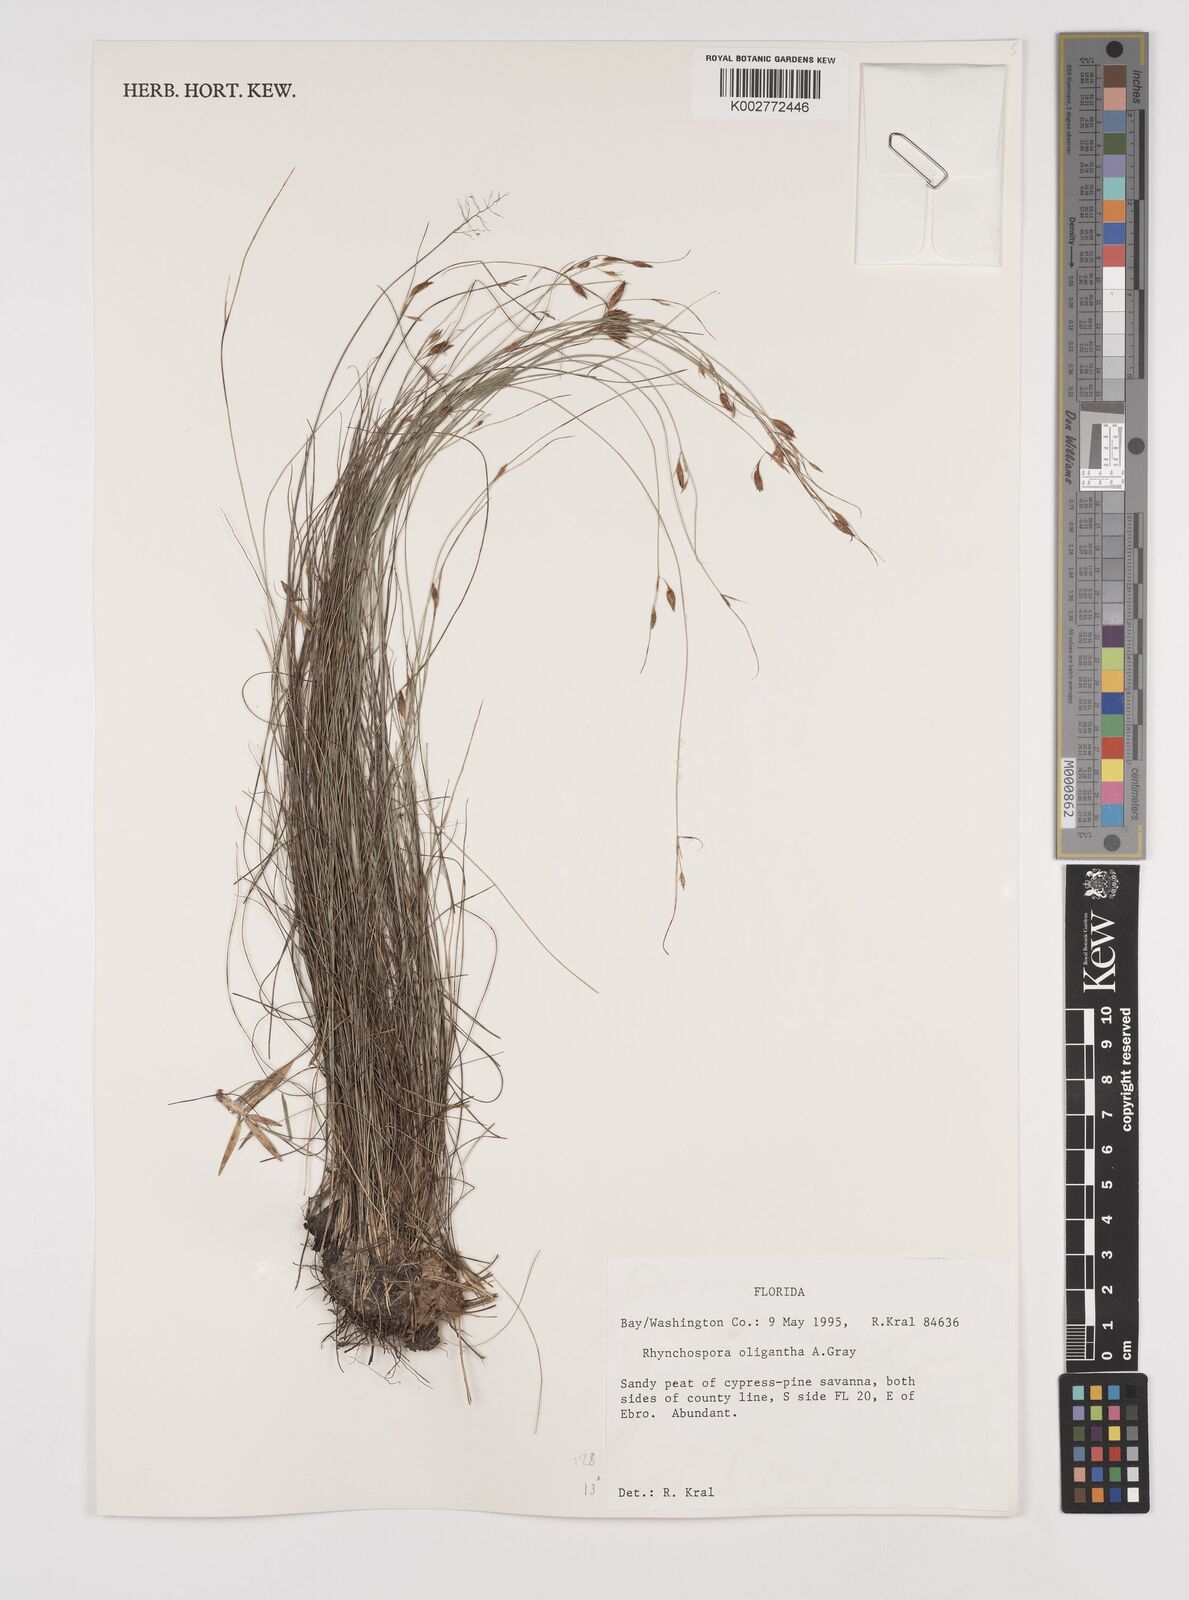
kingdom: Plantae
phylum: Tracheophyta
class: Liliopsida
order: Poales
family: Cyperaceae
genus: Rhynchospora
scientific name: Rhynchospora oligantha
